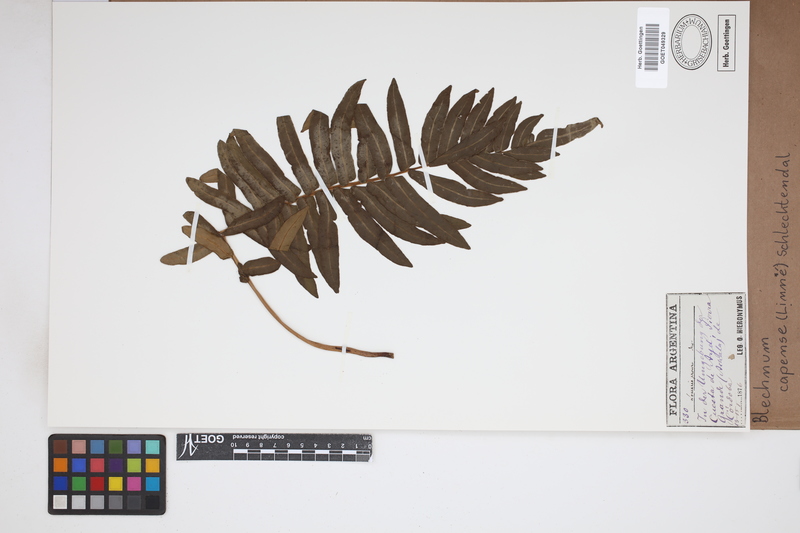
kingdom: Plantae
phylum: Tracheophyta
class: Polypodiopsida
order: Polypodiales
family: Blechnaceae
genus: Parablechnum
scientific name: Parablechnum capense
